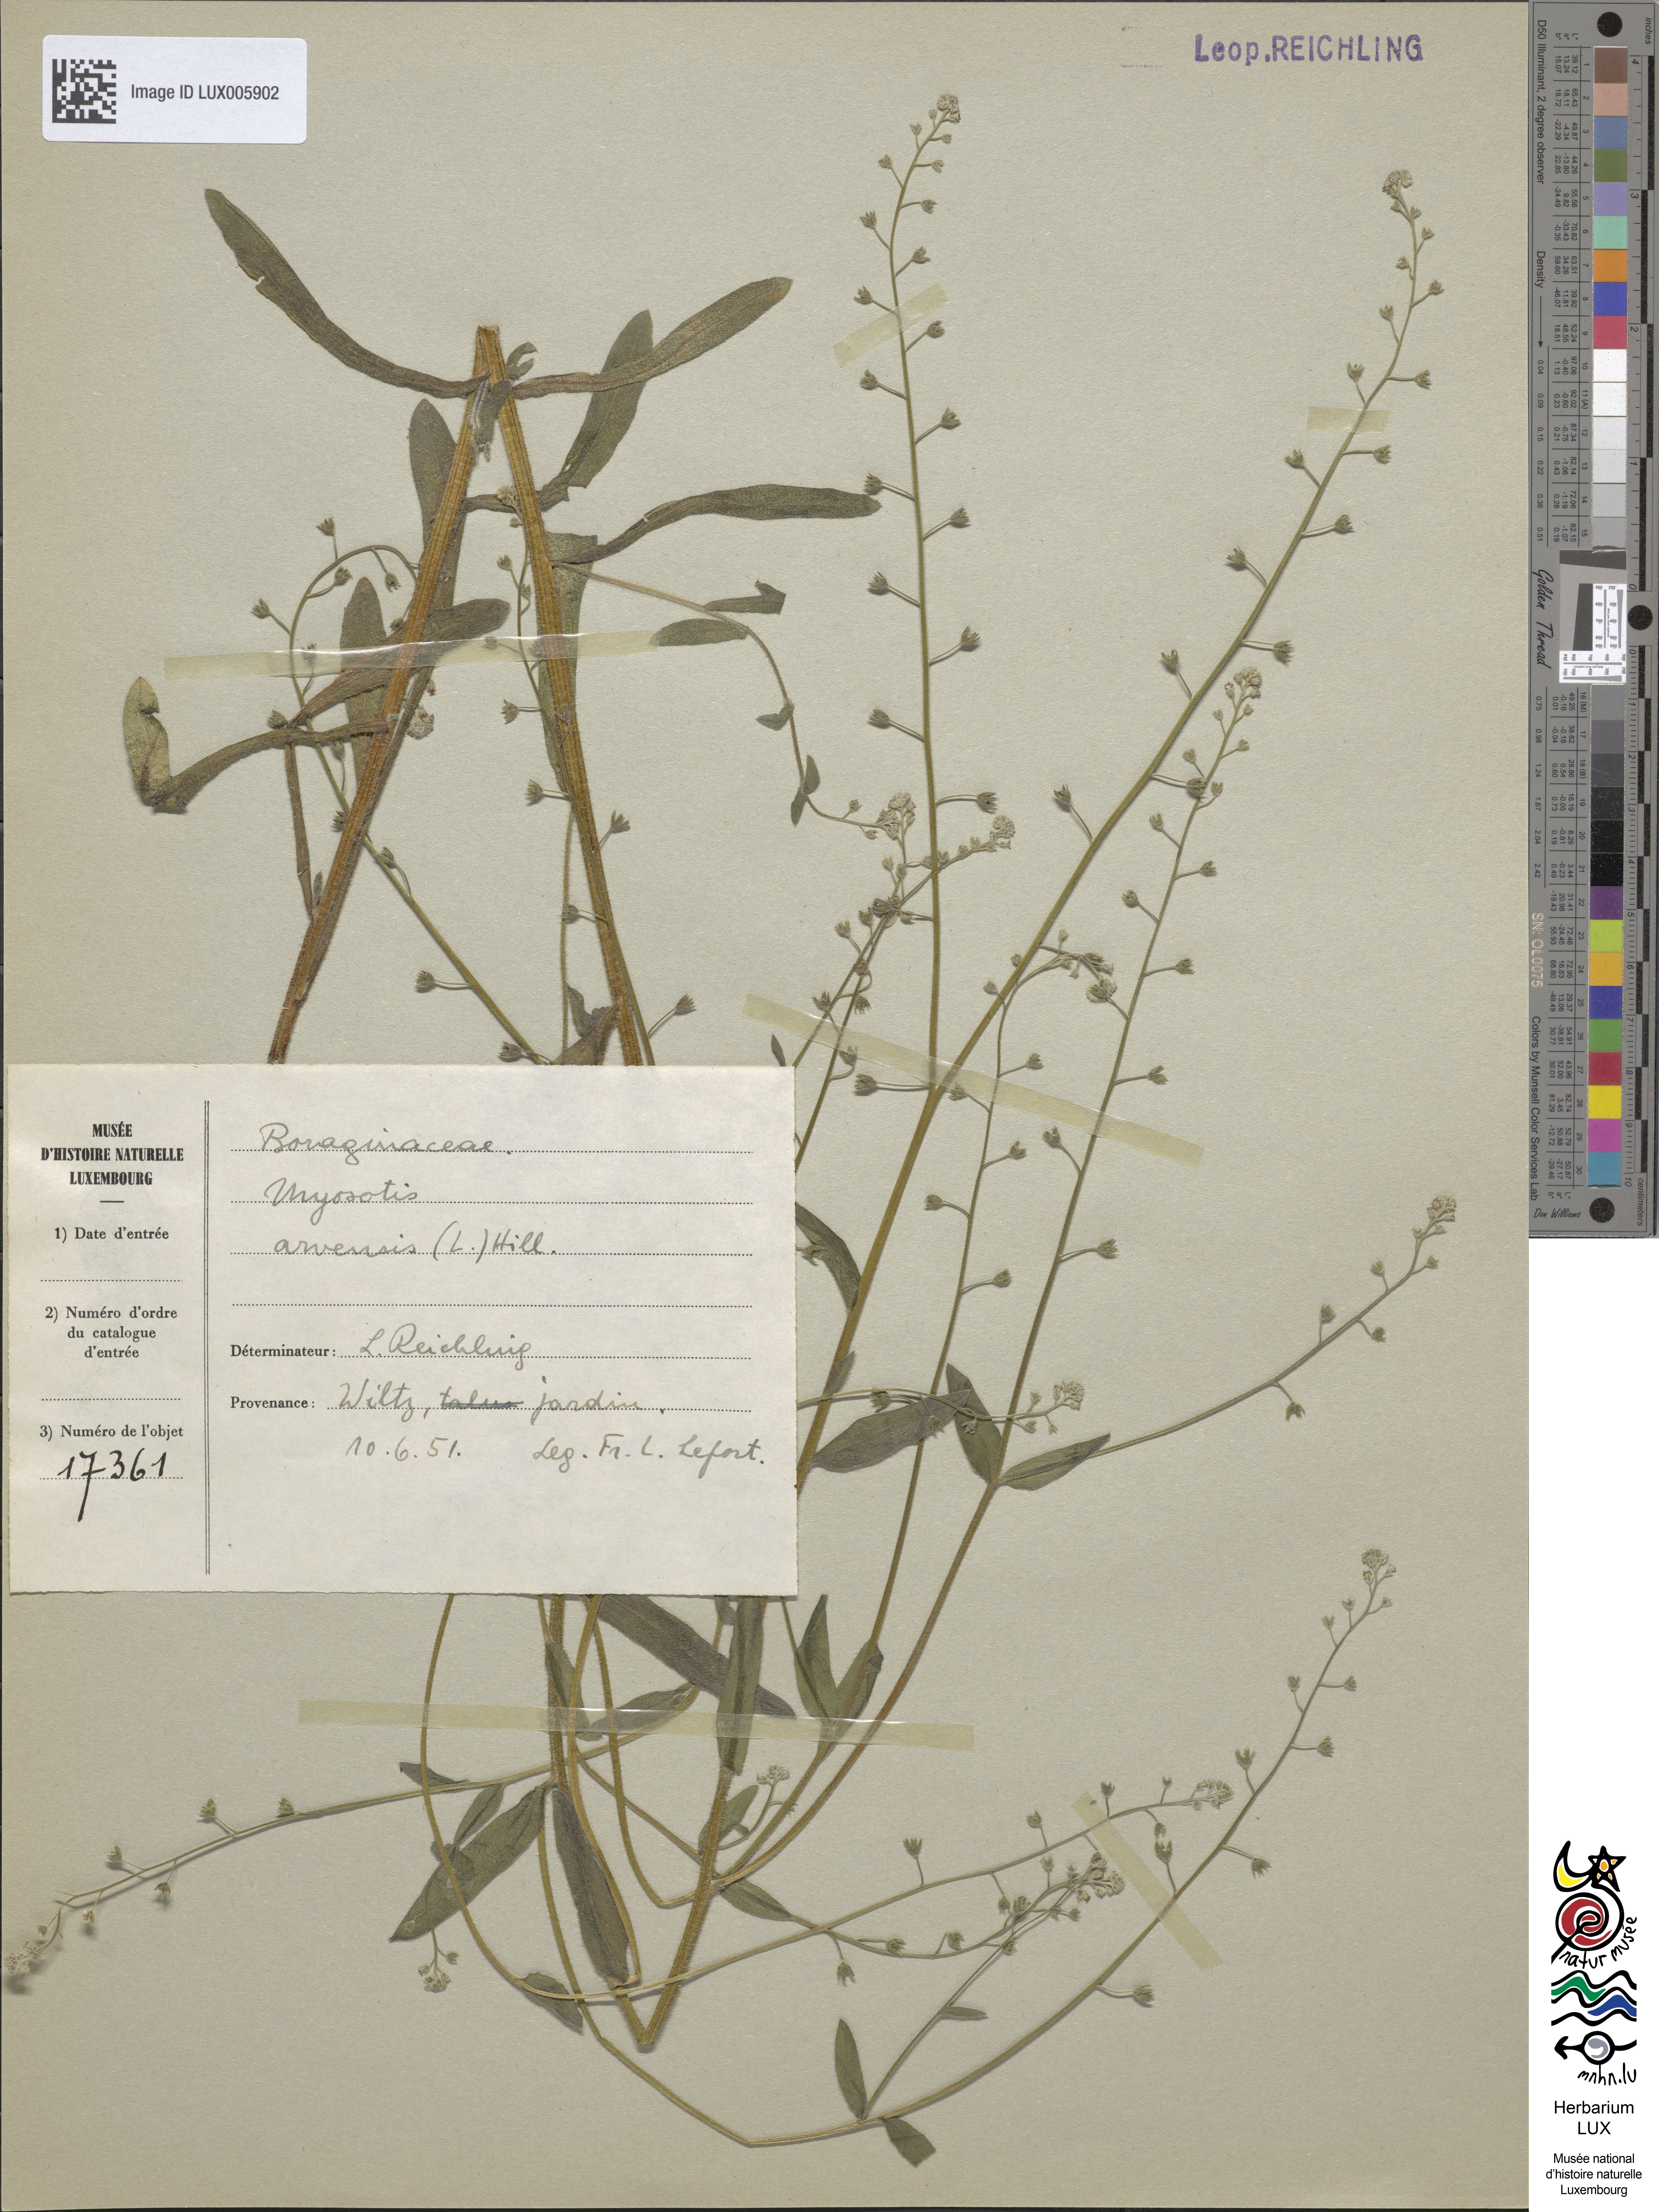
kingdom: Plantae
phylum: Tracheophyta
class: Magnoliopsida
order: Boraginales
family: Boraginaceae
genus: Myosotis
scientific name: Myosotis arvensis
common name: Field forget-me-not
